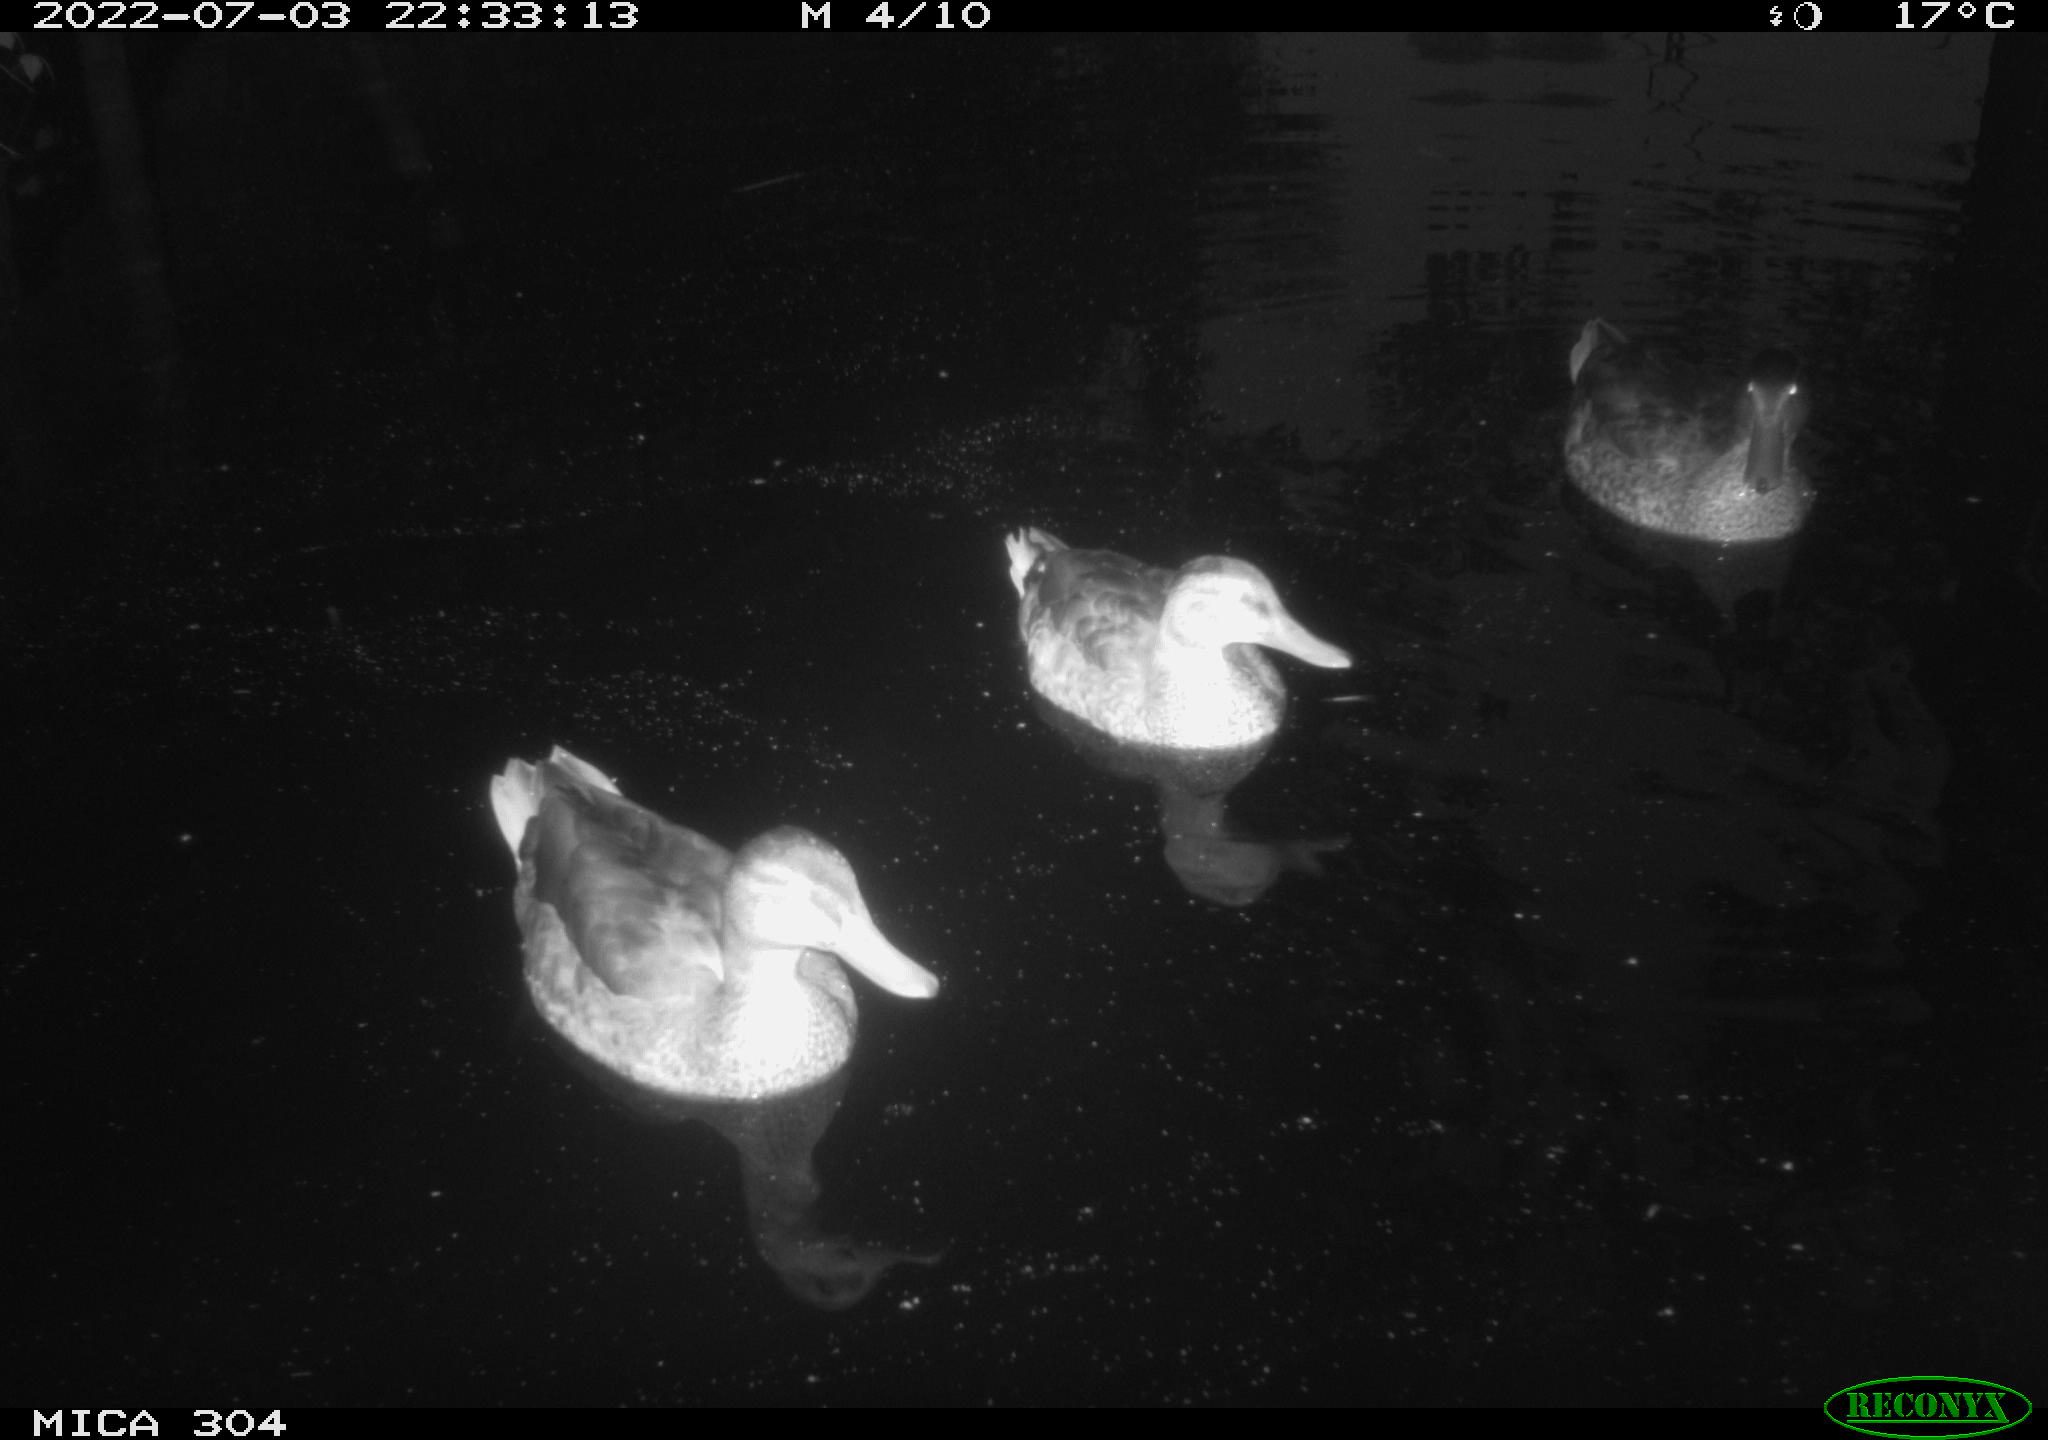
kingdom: Animalia
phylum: Chordata
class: Aves
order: Anseriformes
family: Anatidae
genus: Anas
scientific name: Anas platyrhynchos
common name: Mallard
